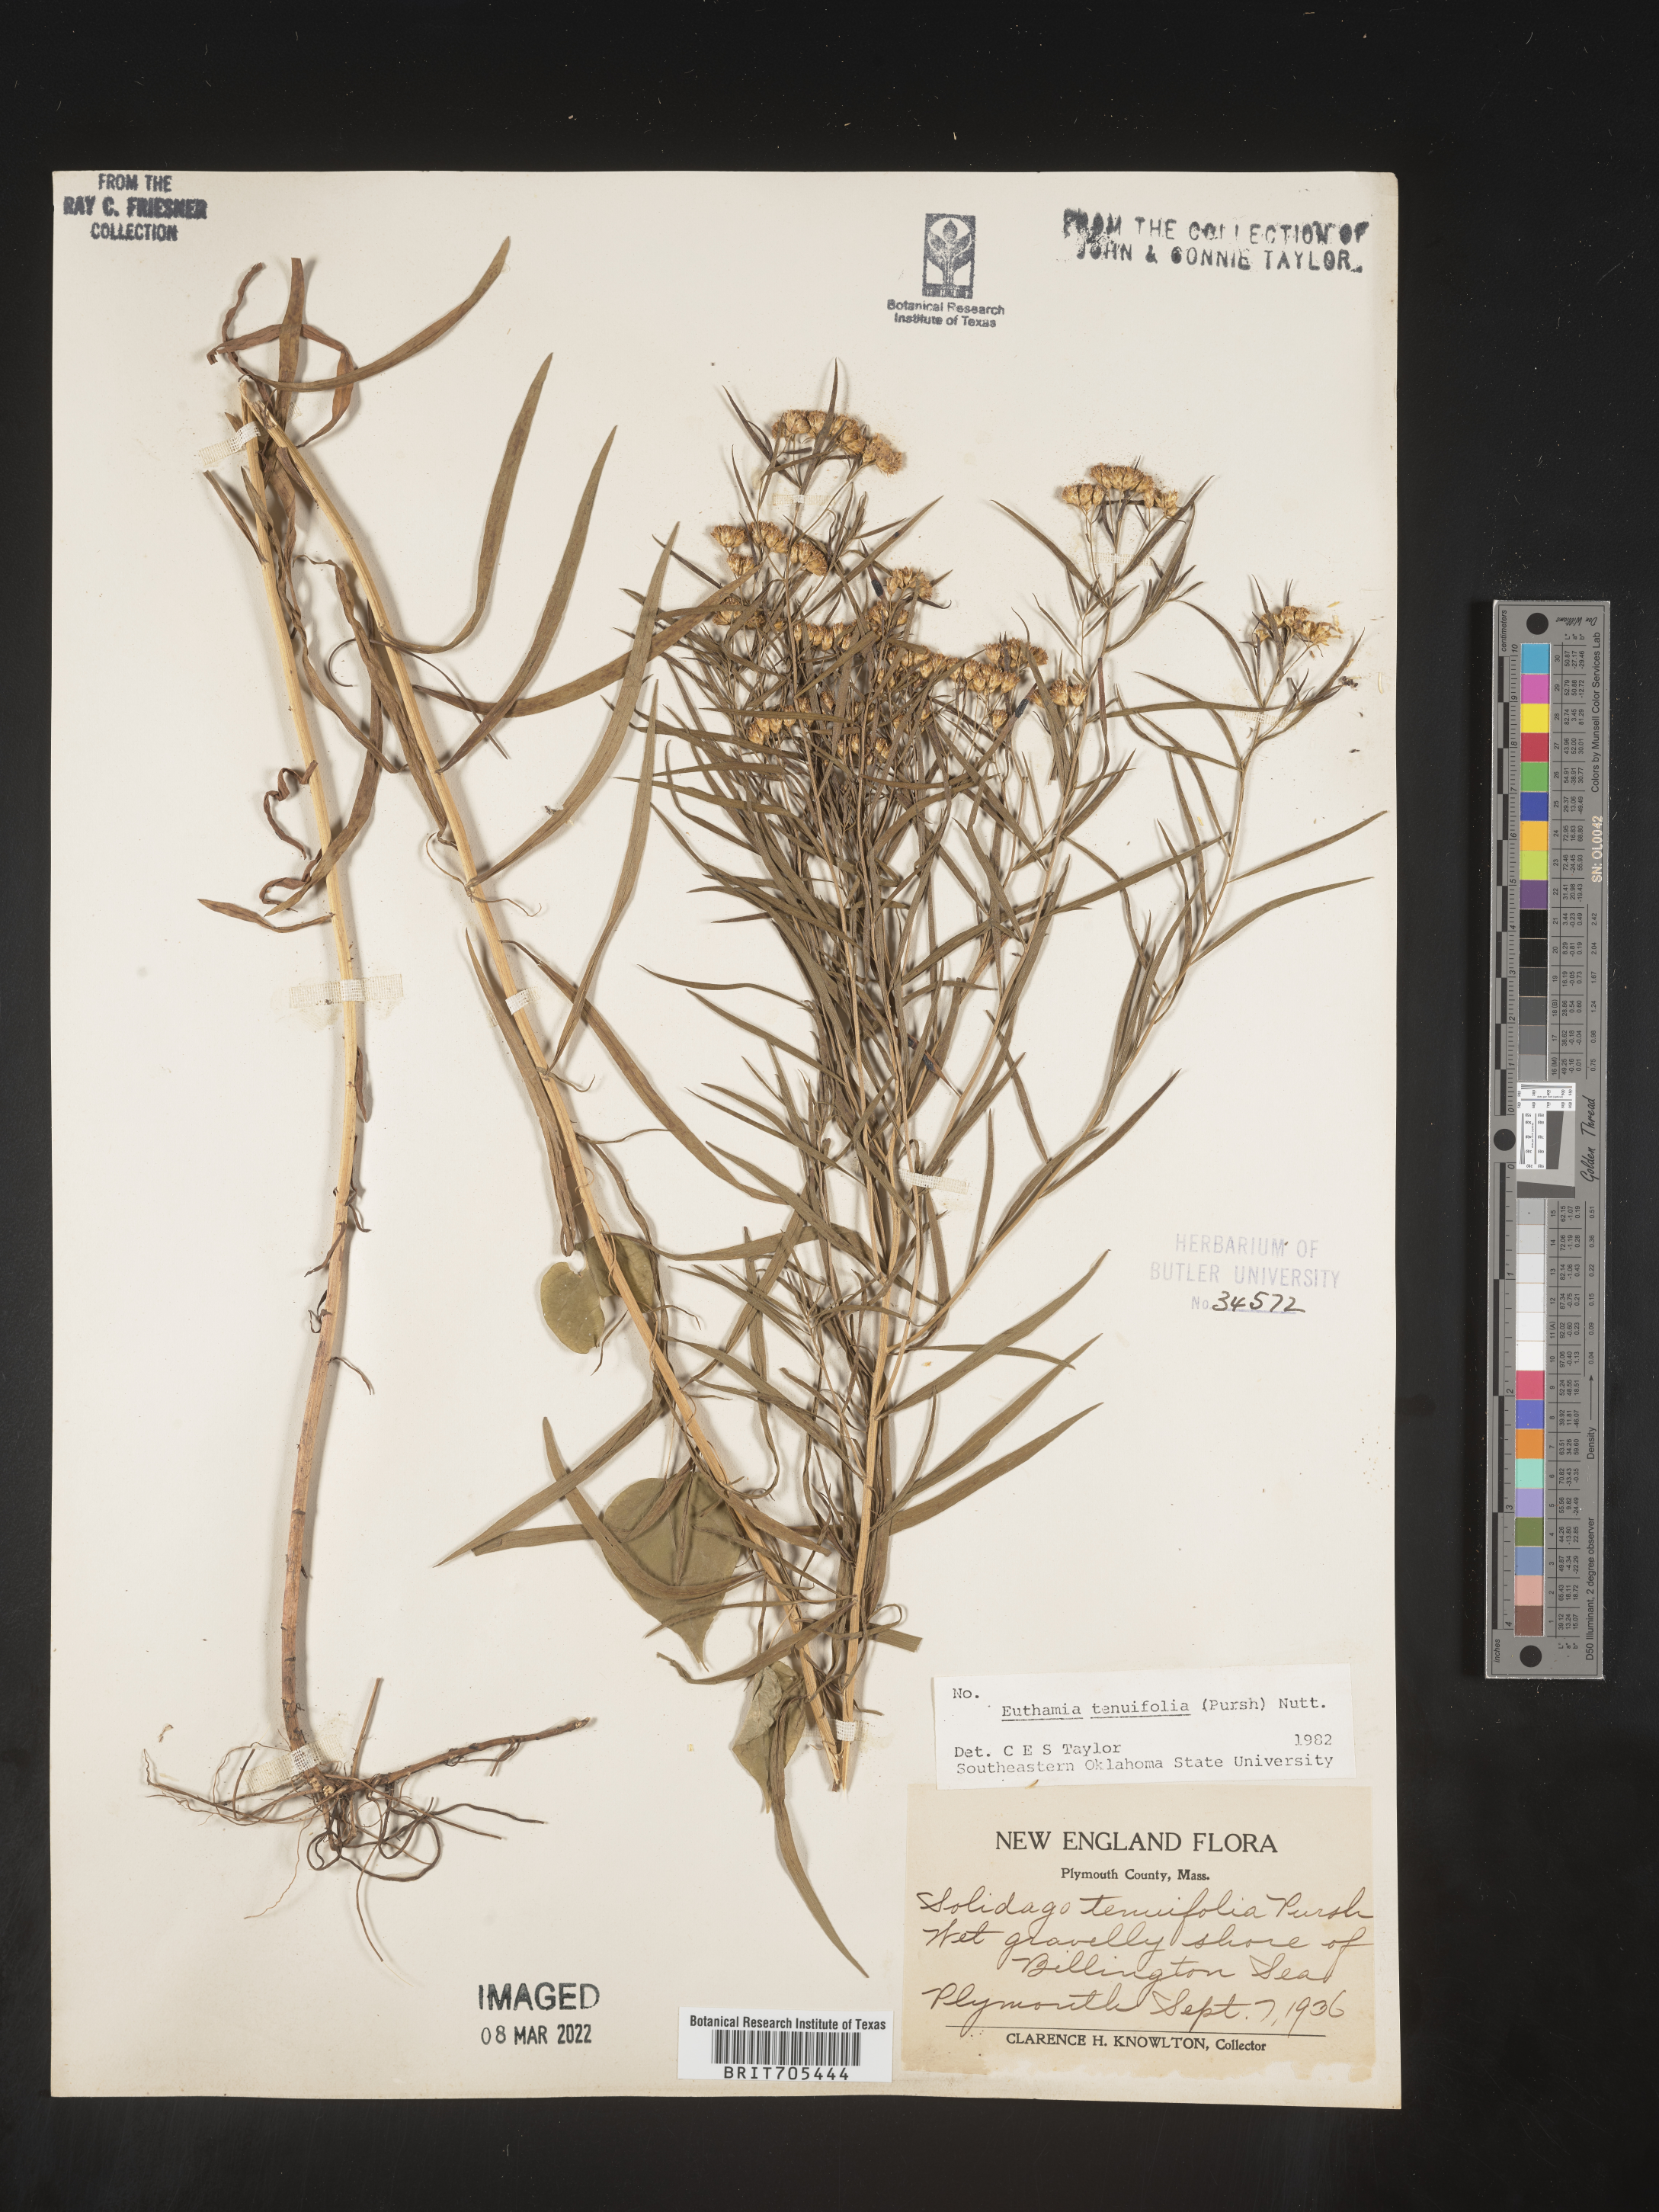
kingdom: Plantae
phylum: Tracheophyta
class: Magnoliopsida
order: Asterales
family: Asteraceae
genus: Euthamia
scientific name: Euthamia scabra
